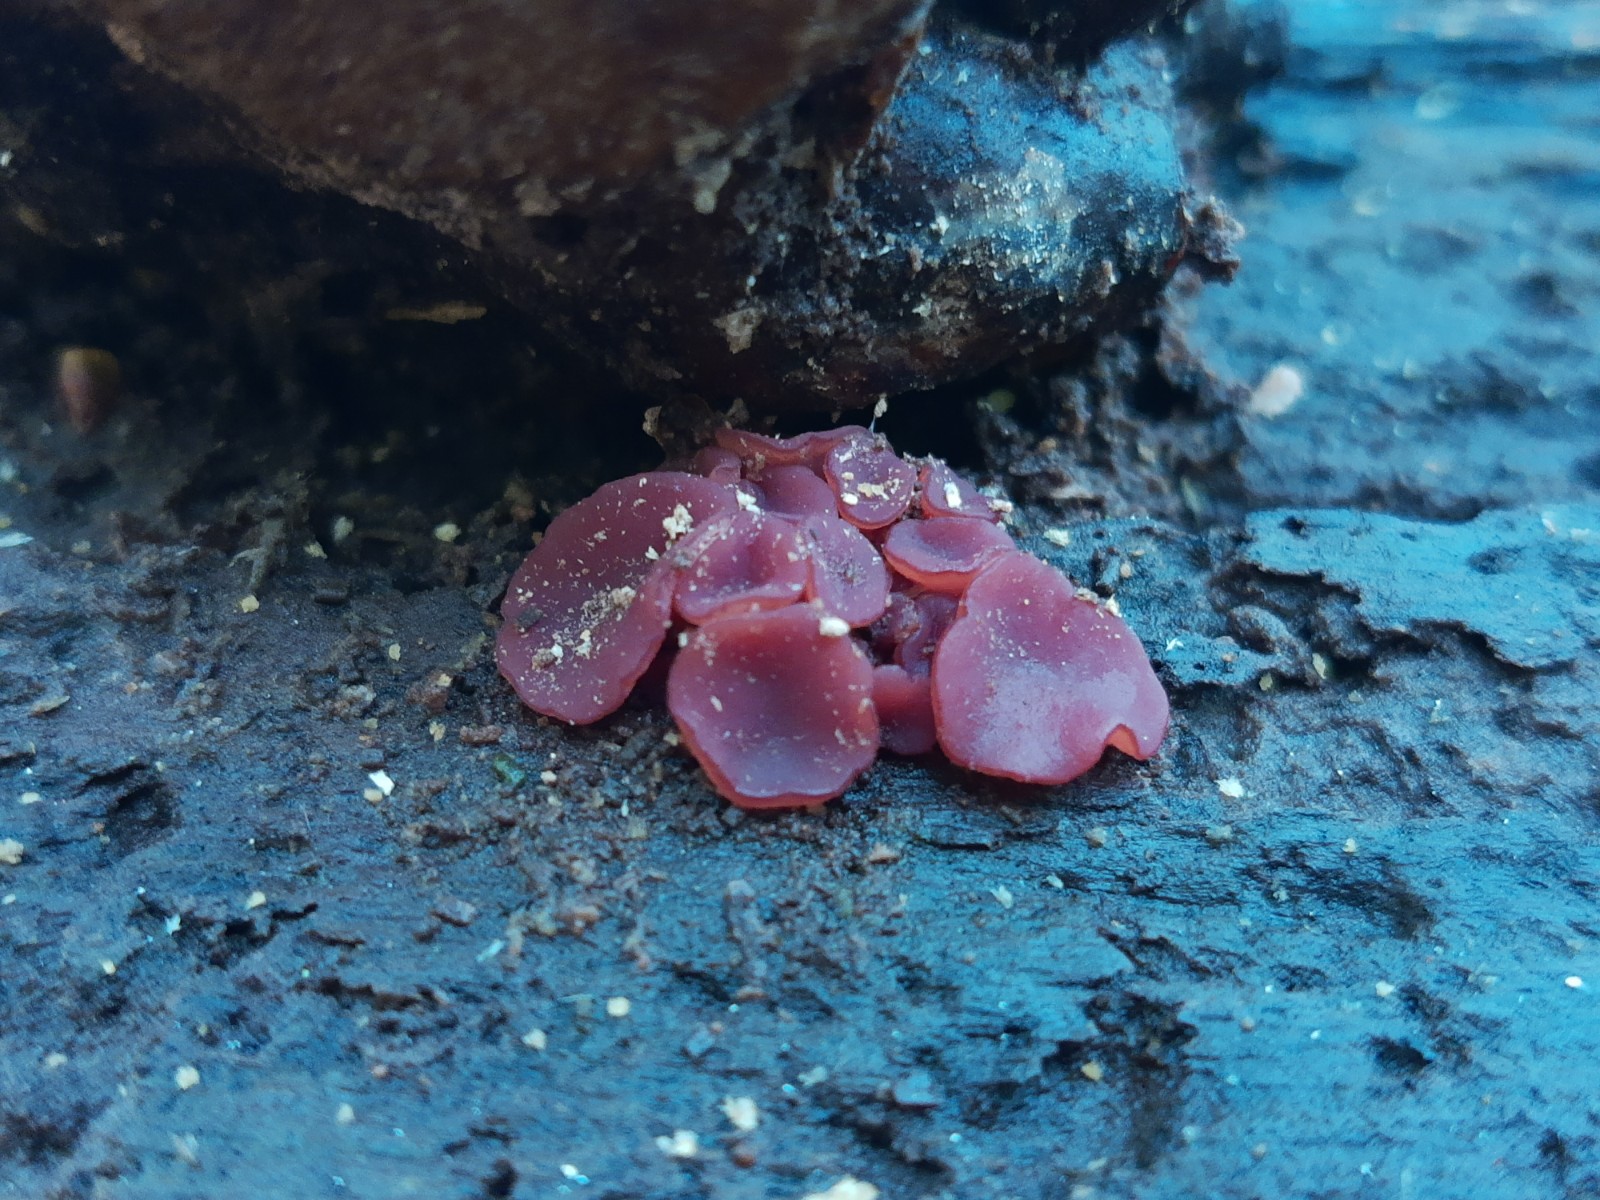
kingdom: Fungi
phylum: Ascomycota
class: Leotiomycetes
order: Helotiales
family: Gelatinodiscaceae
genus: Ascocoryne
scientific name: Ascocoryne cylichnium
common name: stor sejskive
